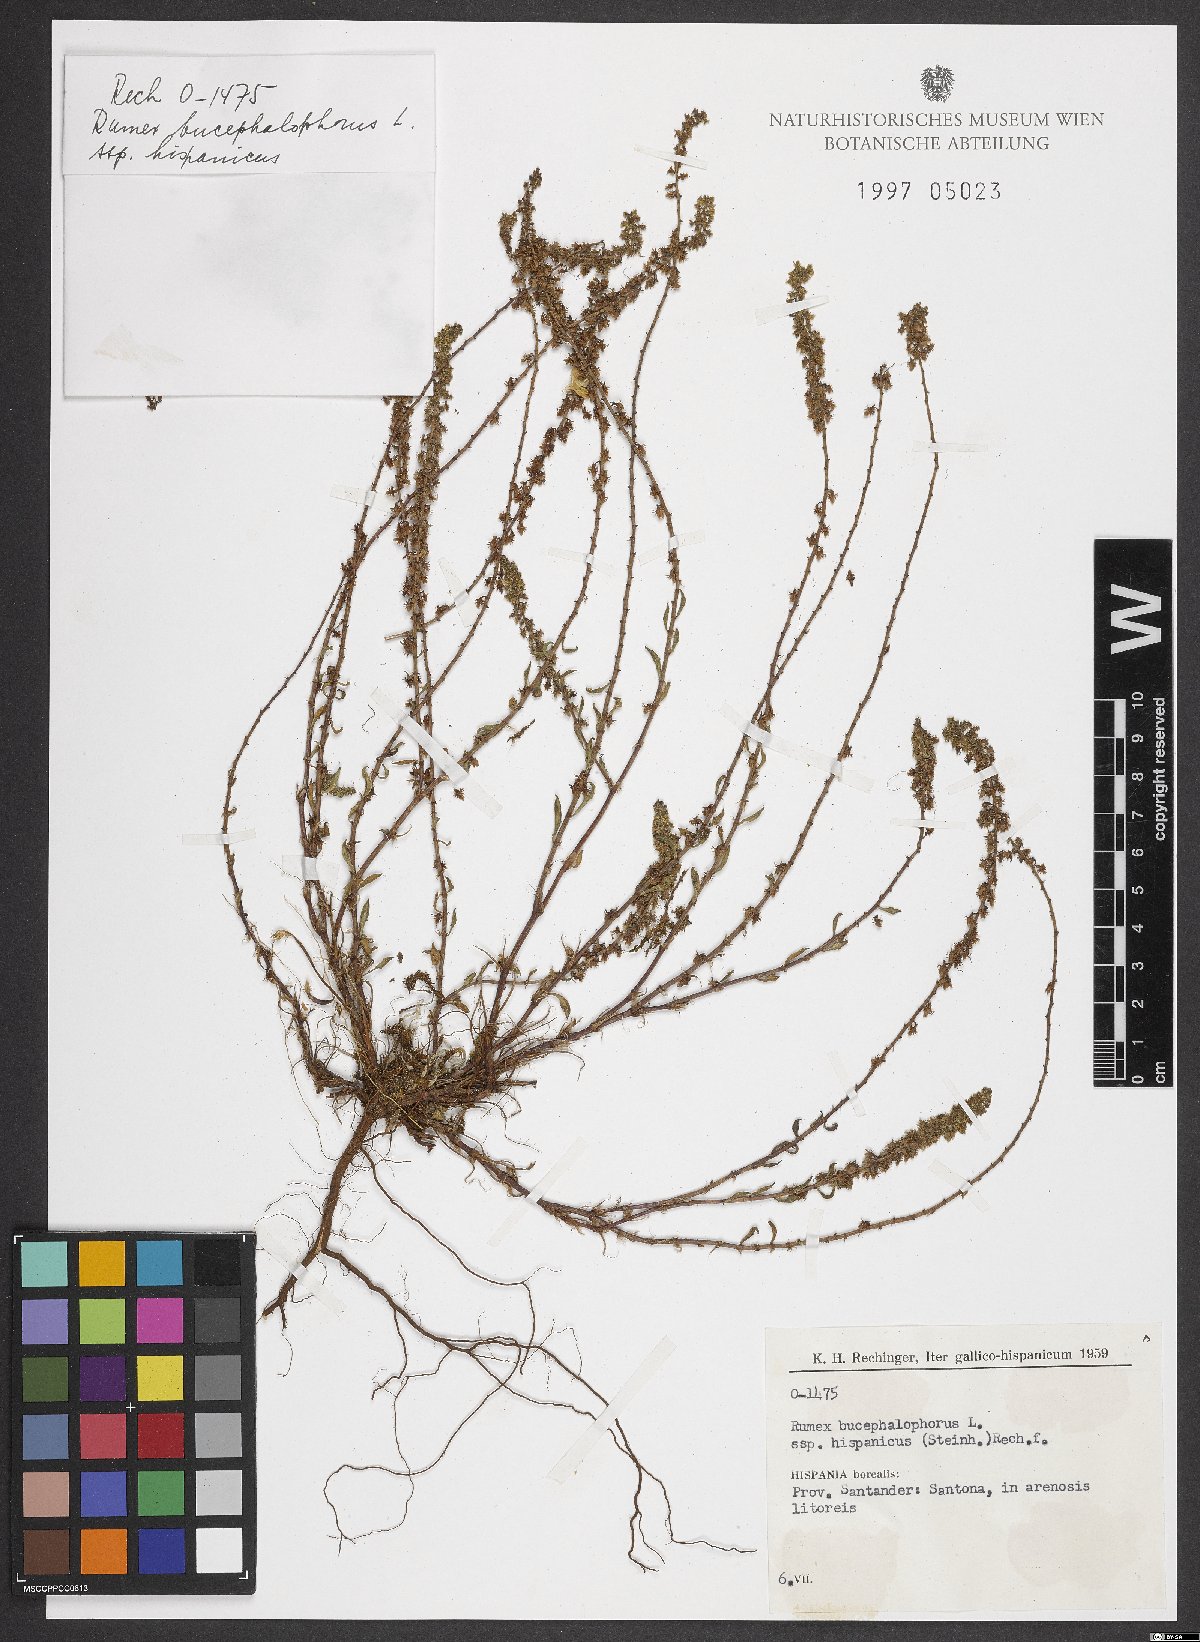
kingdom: Plantae
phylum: Tracheophyta
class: Magnoliopsida
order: Caryophyllales
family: Polygonaceae
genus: Rumex
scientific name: Rumex bucephalophorus
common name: Red dock
